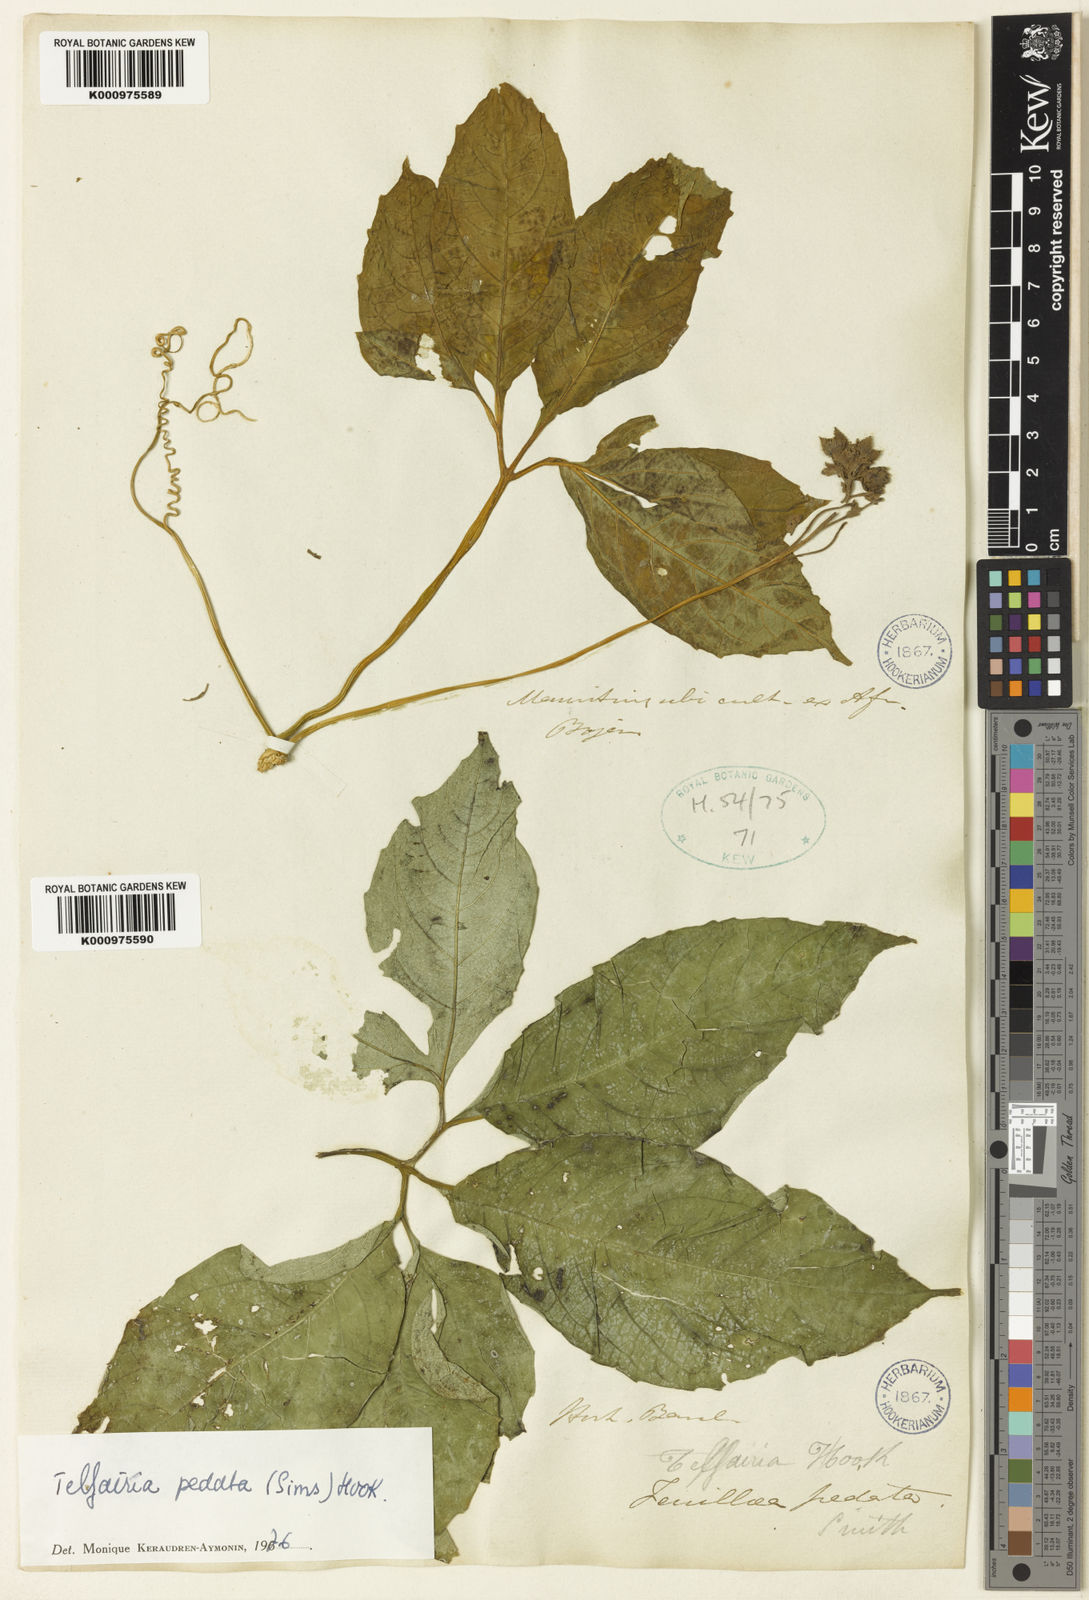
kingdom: Plantae
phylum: Tracheophyta
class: Magnoliopsida
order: Cucurbitales
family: Cucurbitaceae
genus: Telfairia
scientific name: Telfairia pedata
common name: Zanzibar oilvine
